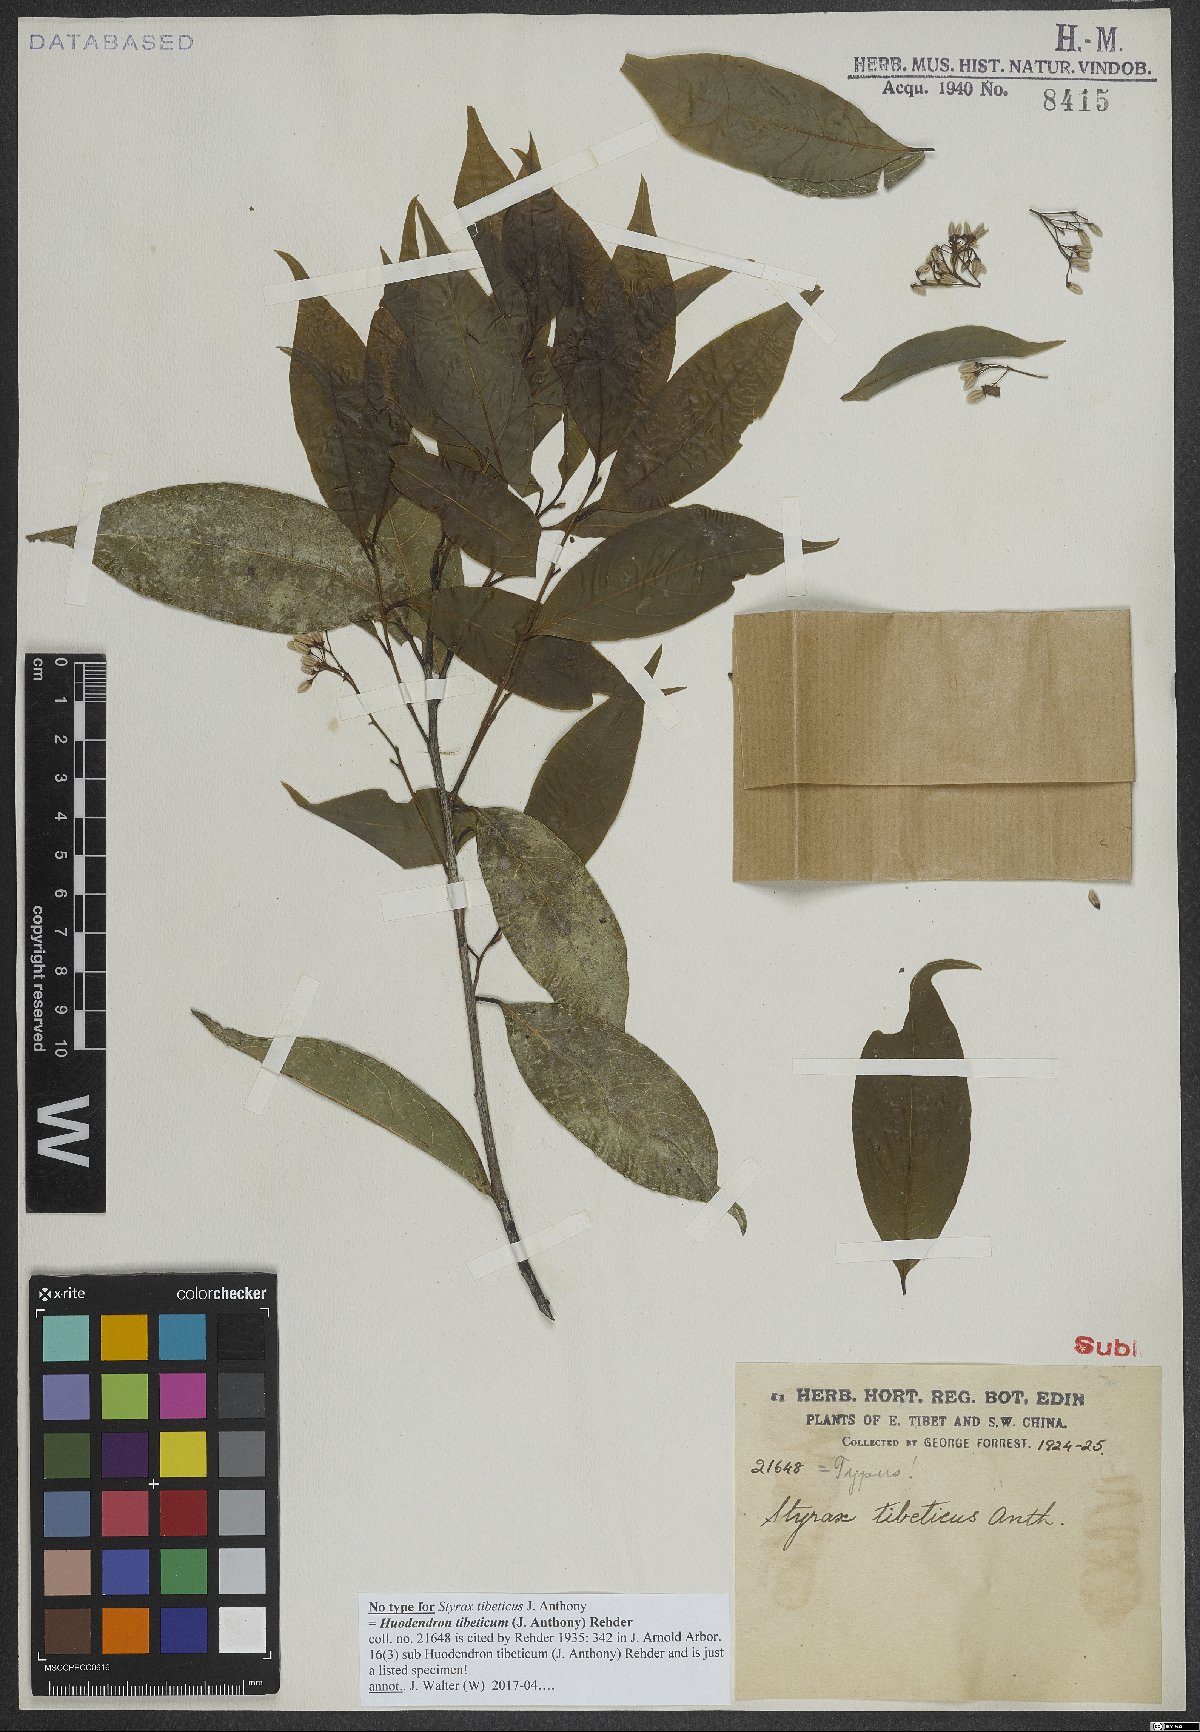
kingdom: Plantae
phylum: Tracheophyta
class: Magnoliopsida
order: Ericales
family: Styracaceae
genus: Huodendron
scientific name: Huodendron tibeticum
